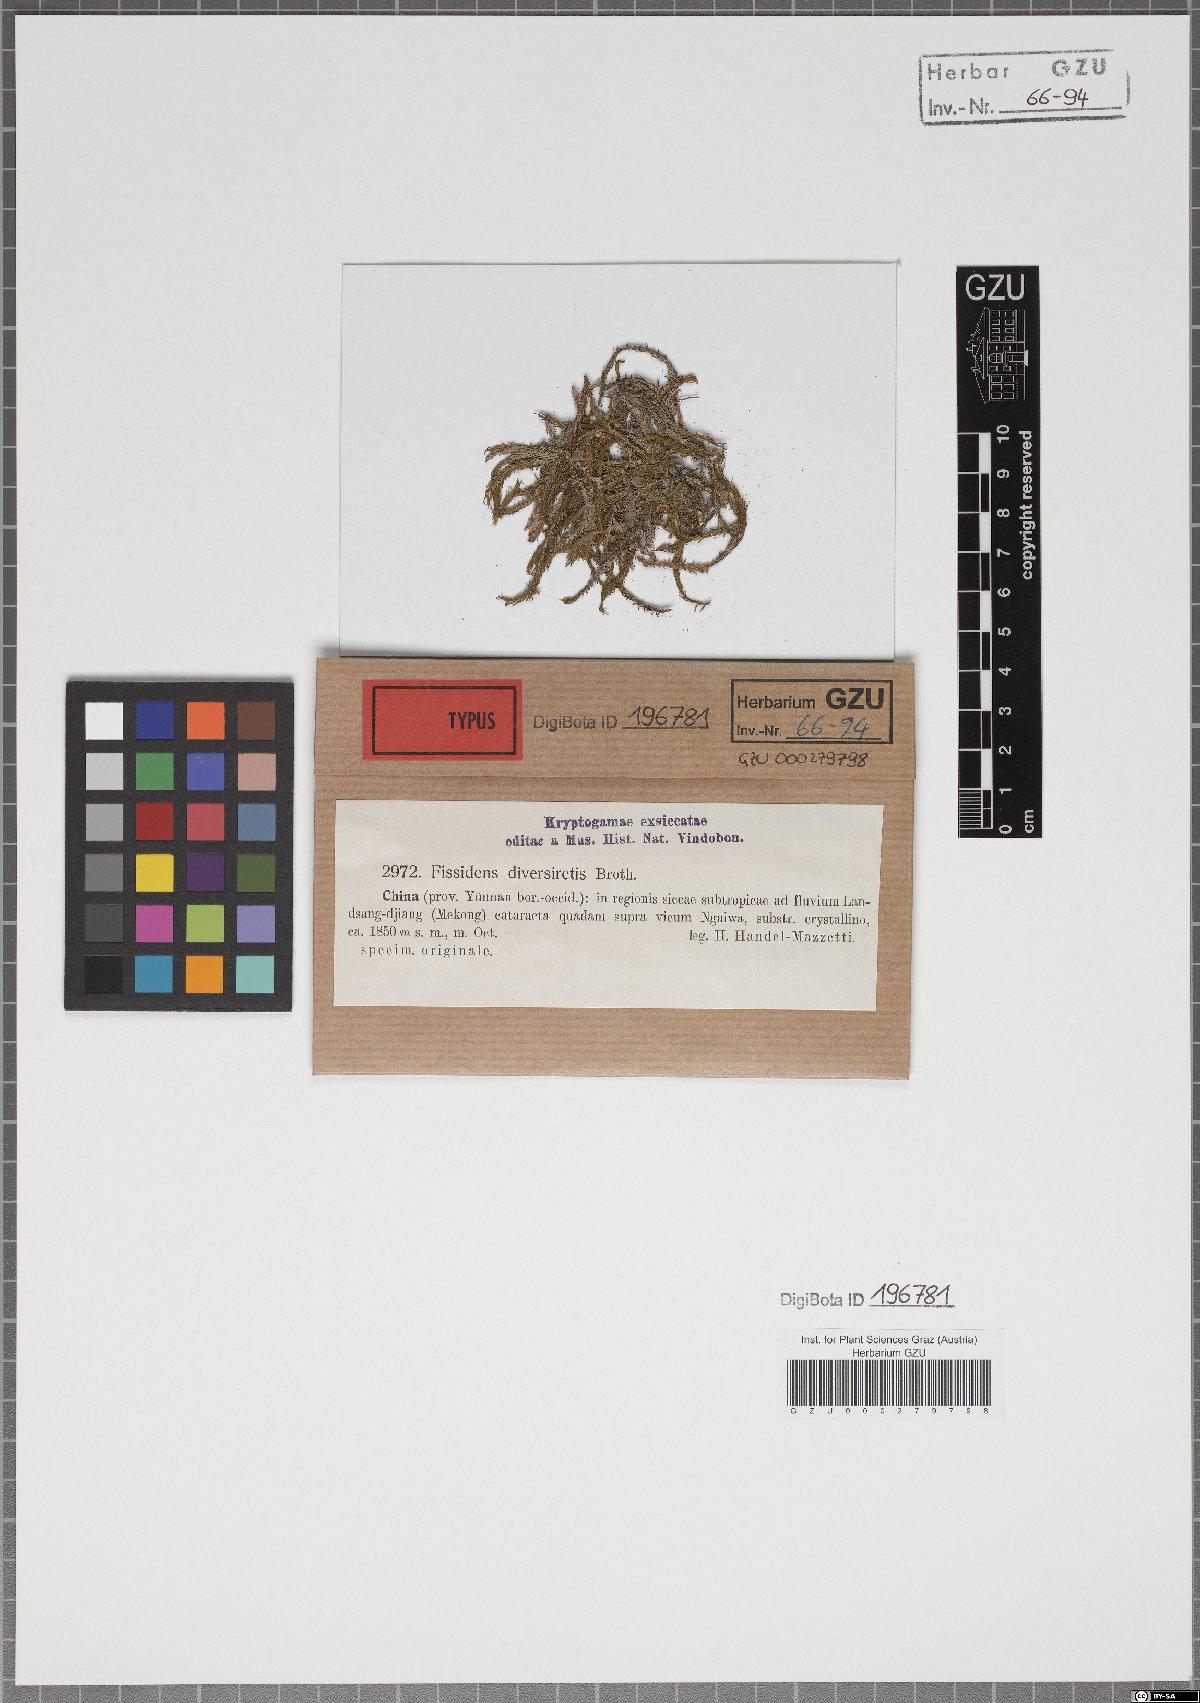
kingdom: Plantae
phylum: Bryophyta
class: Bryopsida
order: Dicranales
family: Fissidentaceae
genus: Fissidens
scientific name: Fissidens grandifrons
